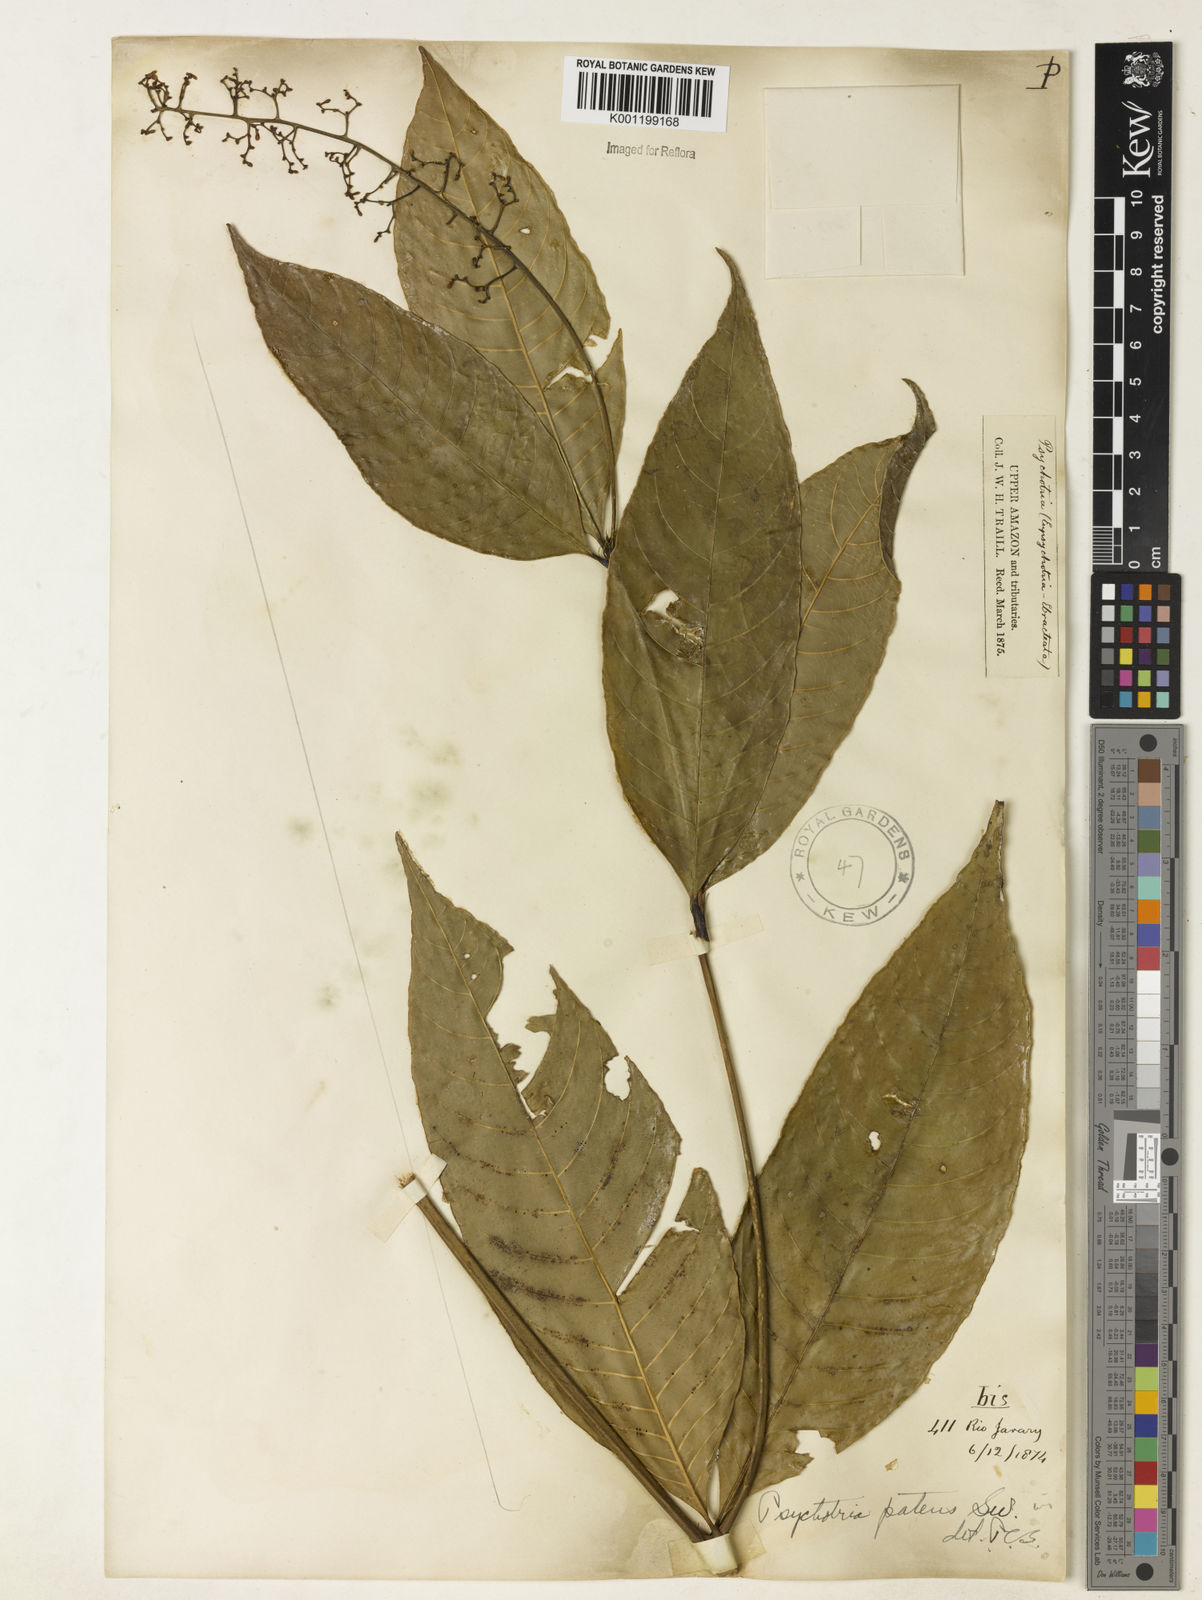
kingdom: Plantae
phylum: Tracheophyta
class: Magnoliopsida
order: Gentianales
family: Rubiaceae
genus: Palicourea
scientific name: Palicourea deflexa
